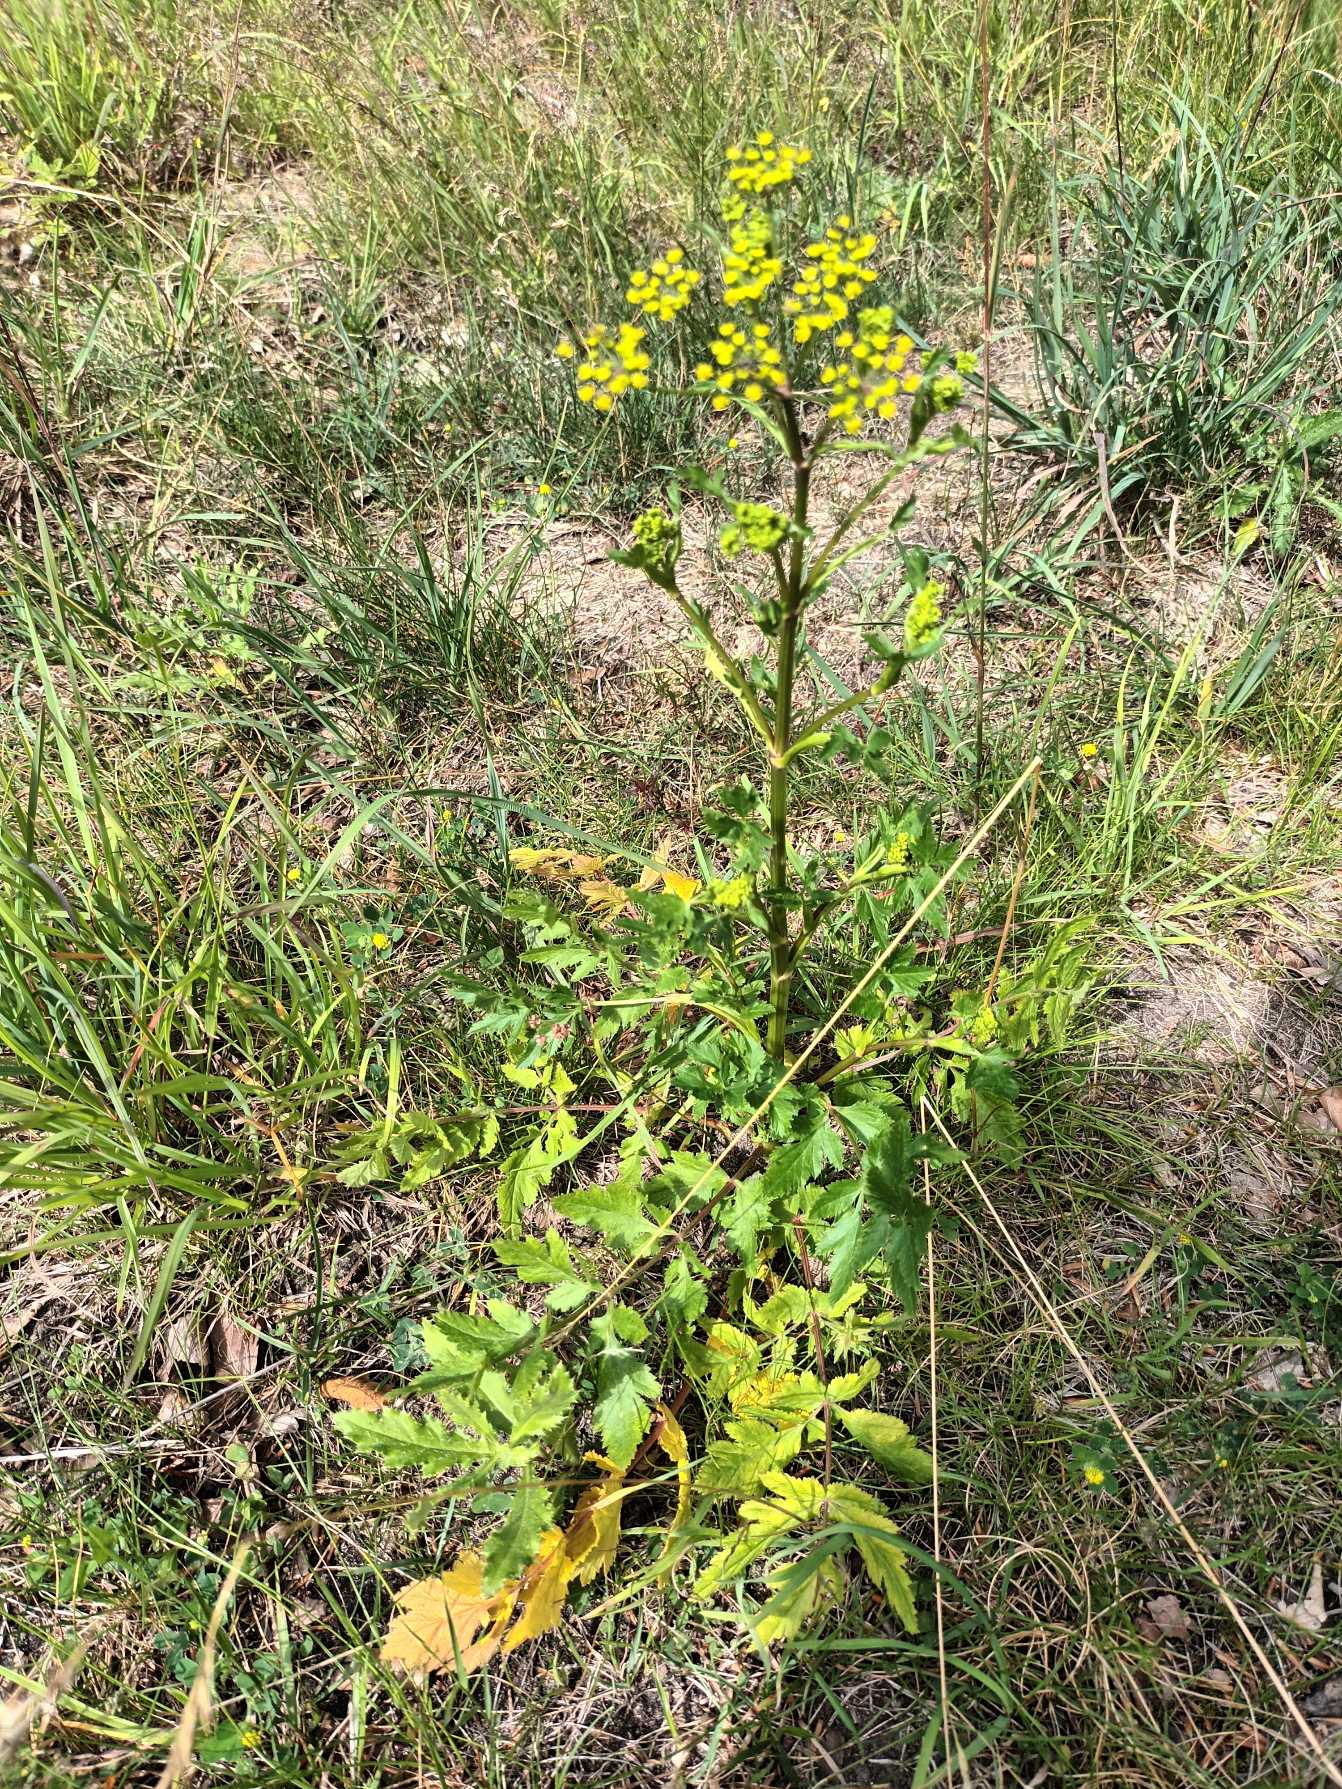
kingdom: Plantae
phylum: Tracheophyta
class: Magnoliopsida
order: Apiales
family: Apiaceae
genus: Pastinaca
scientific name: Pastinaca sativa
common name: Pastinak
